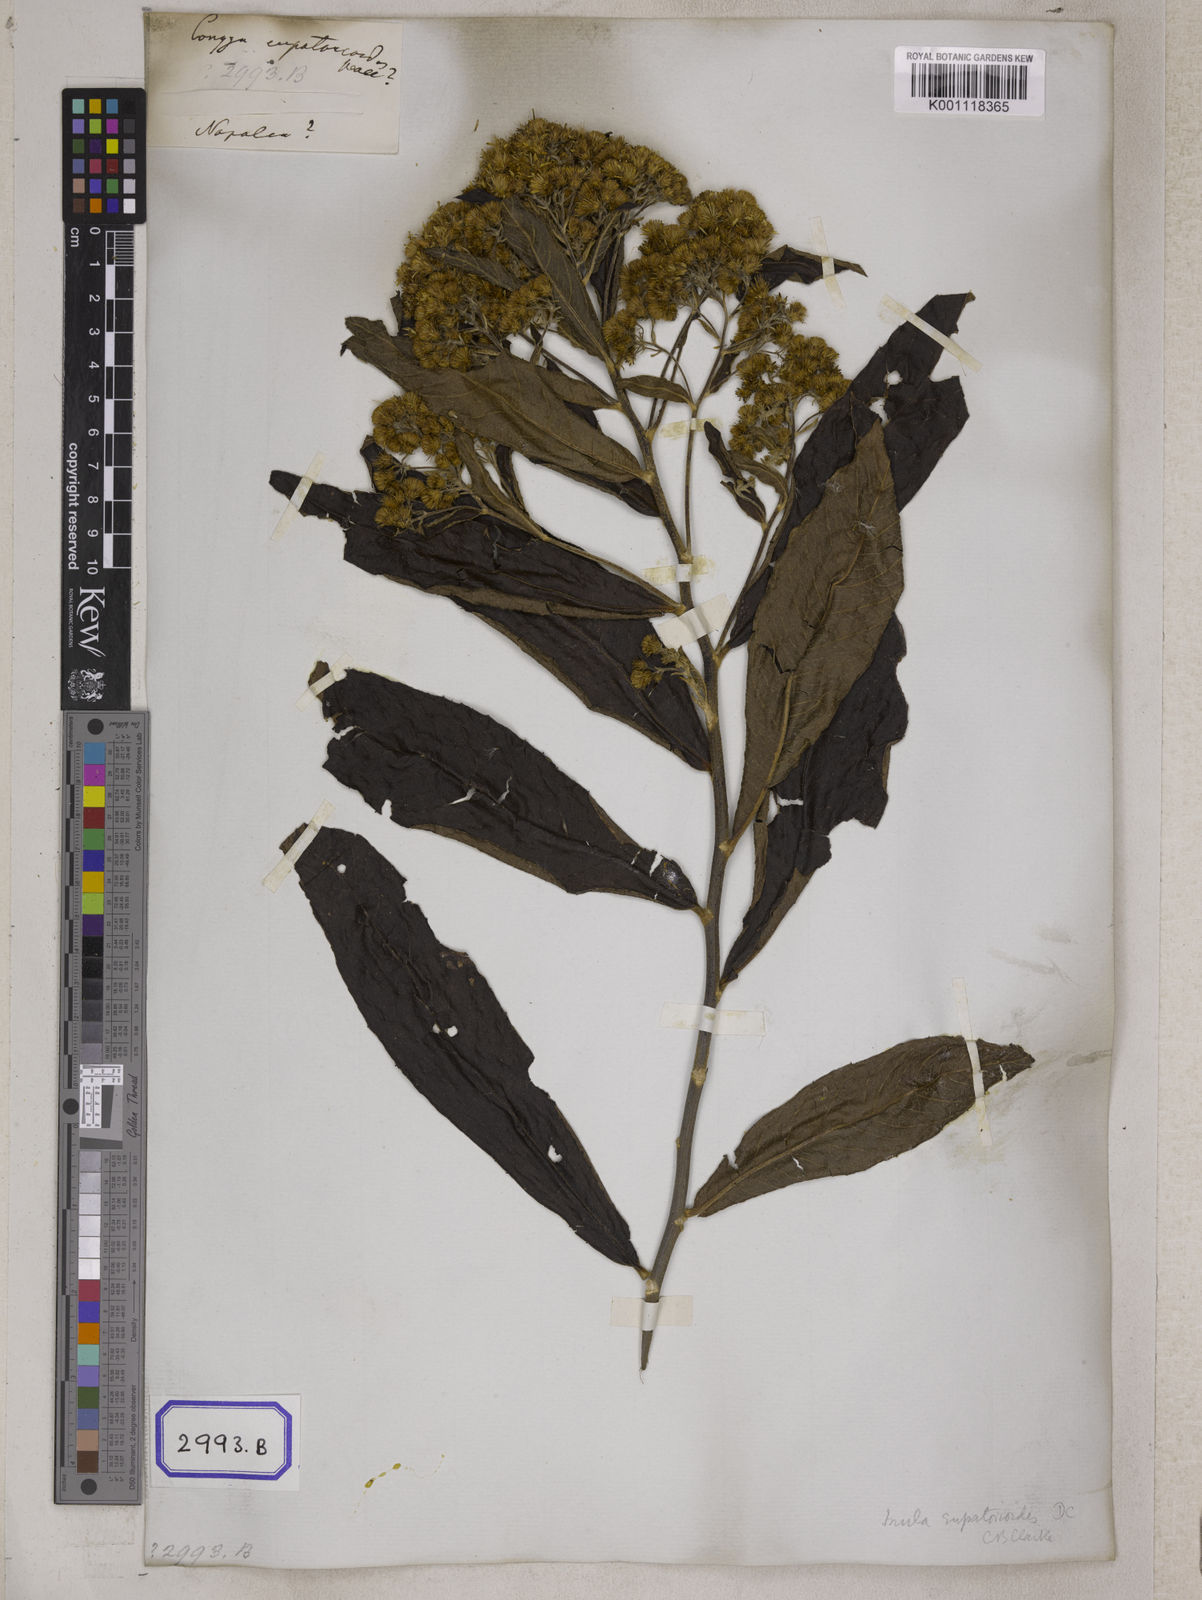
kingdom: Plantae
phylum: Tracheophyta
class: Magnoliopsida
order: Asterales
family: Asteraceae
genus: Duhaldea
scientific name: Duhaldea eupatorioides
